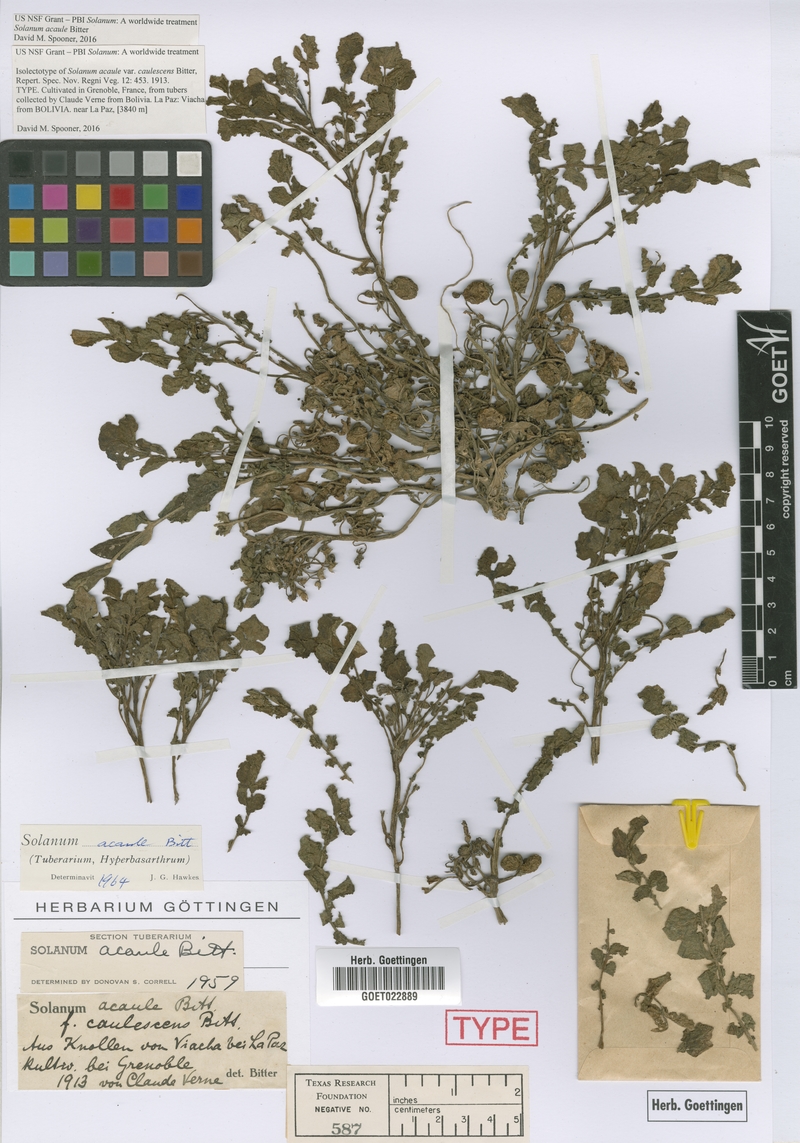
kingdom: Plantae
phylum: Tracheophyta
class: Magnoliopsida
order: Solanales
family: Solanaceae
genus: Solanum
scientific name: Solanum acaule
